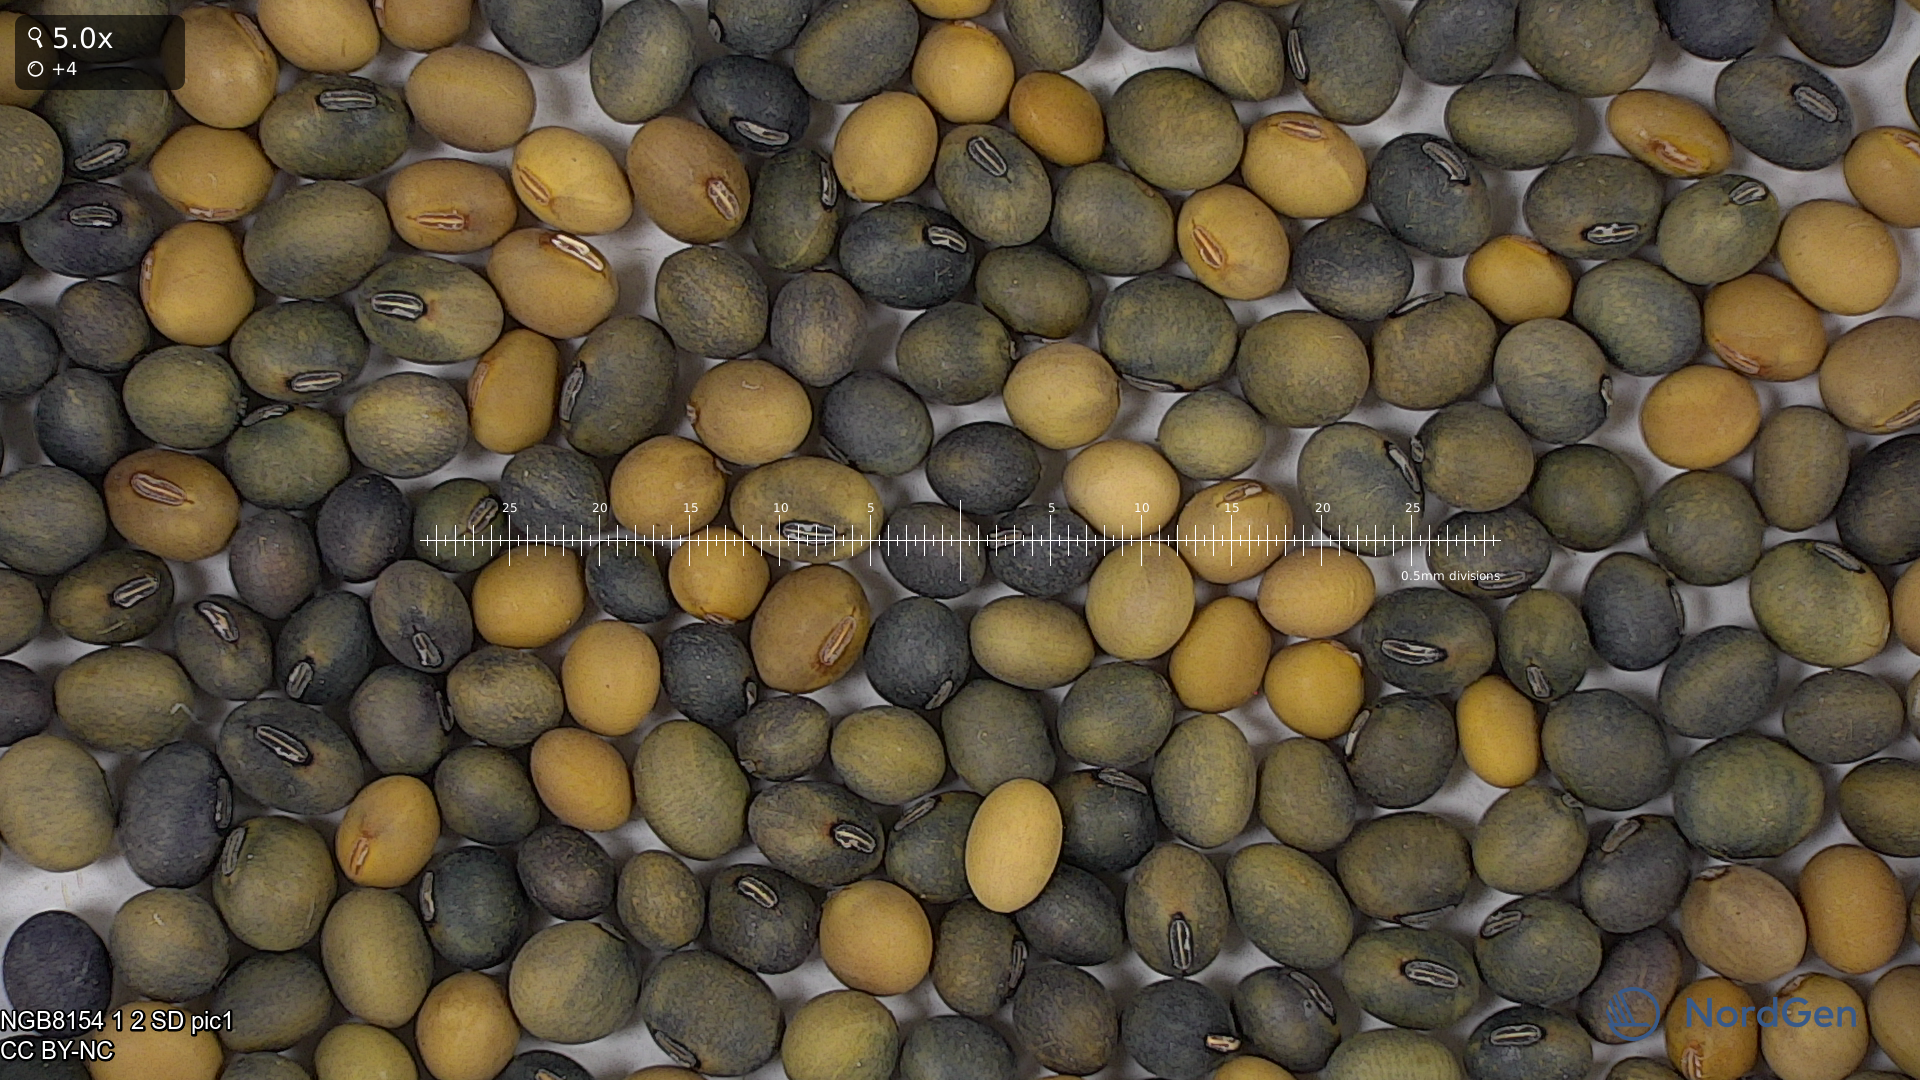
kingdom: Plantae
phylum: Tracheophyta
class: Magnoliopsida
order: Fabales
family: Fabaceae
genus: Glycine
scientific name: Glycine max
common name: Soya-bean
